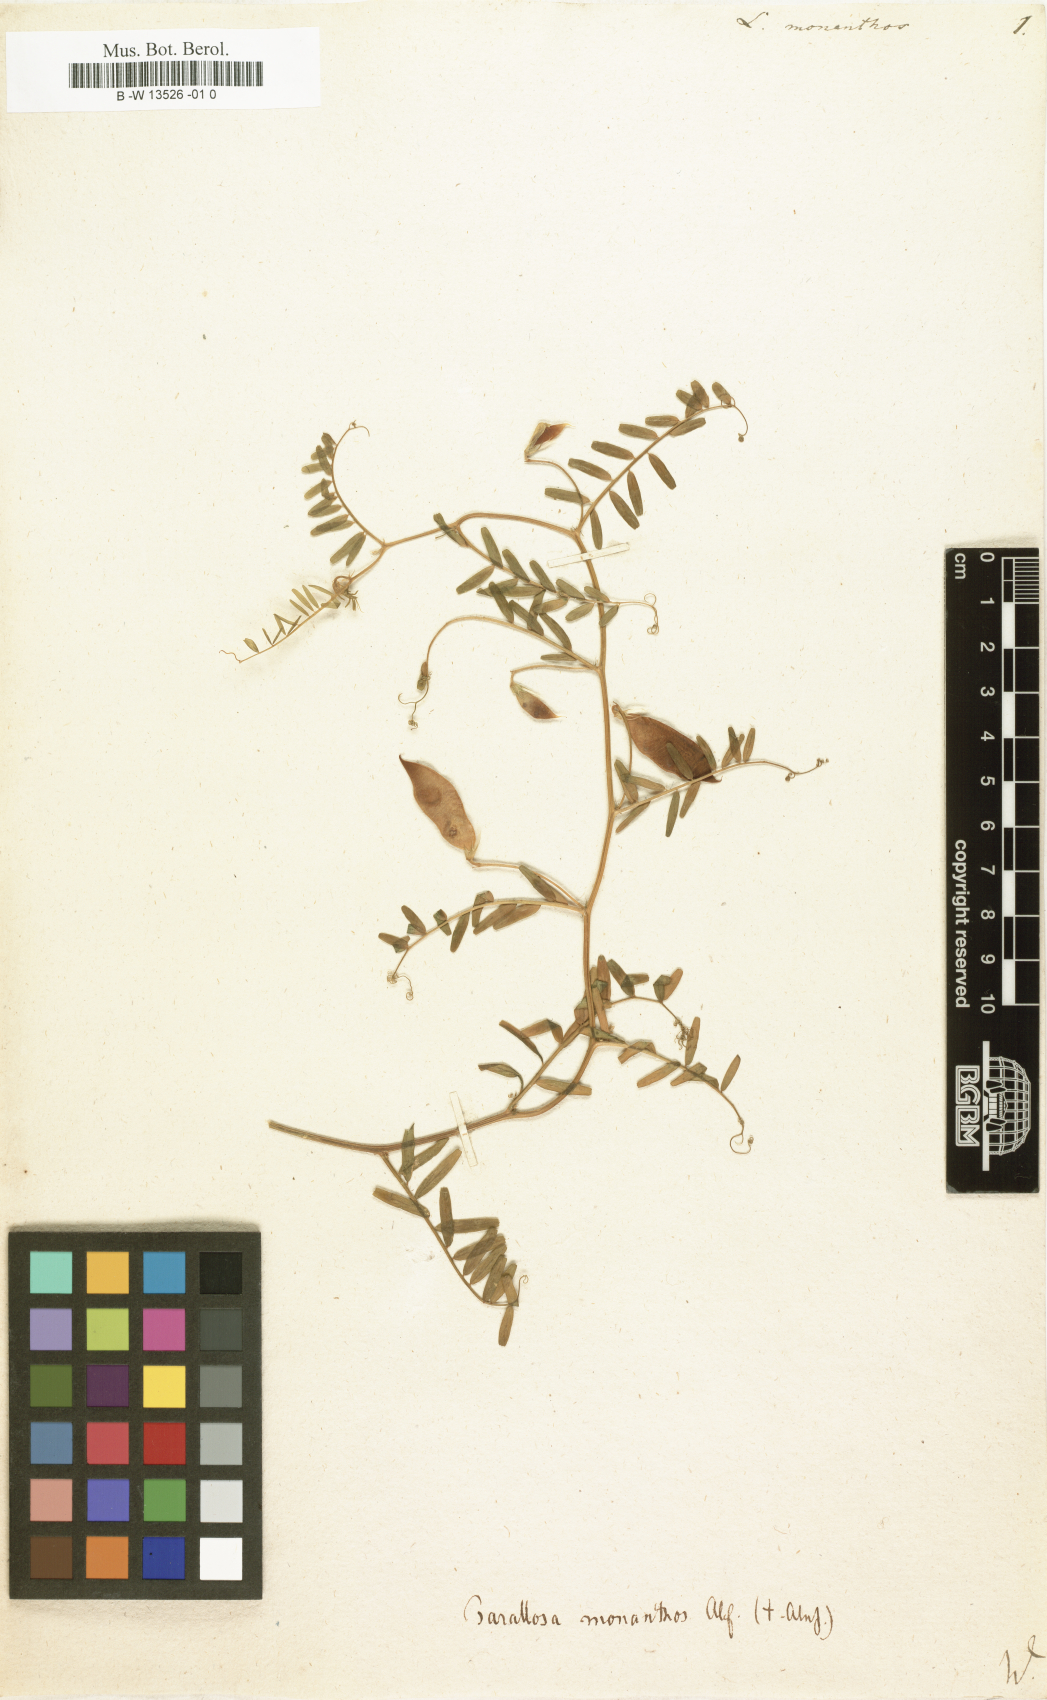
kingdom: Plantae
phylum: Tracheophyta
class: Magnoliopsida
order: Fabales
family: Fabaceae
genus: Vicia
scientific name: Vicia
